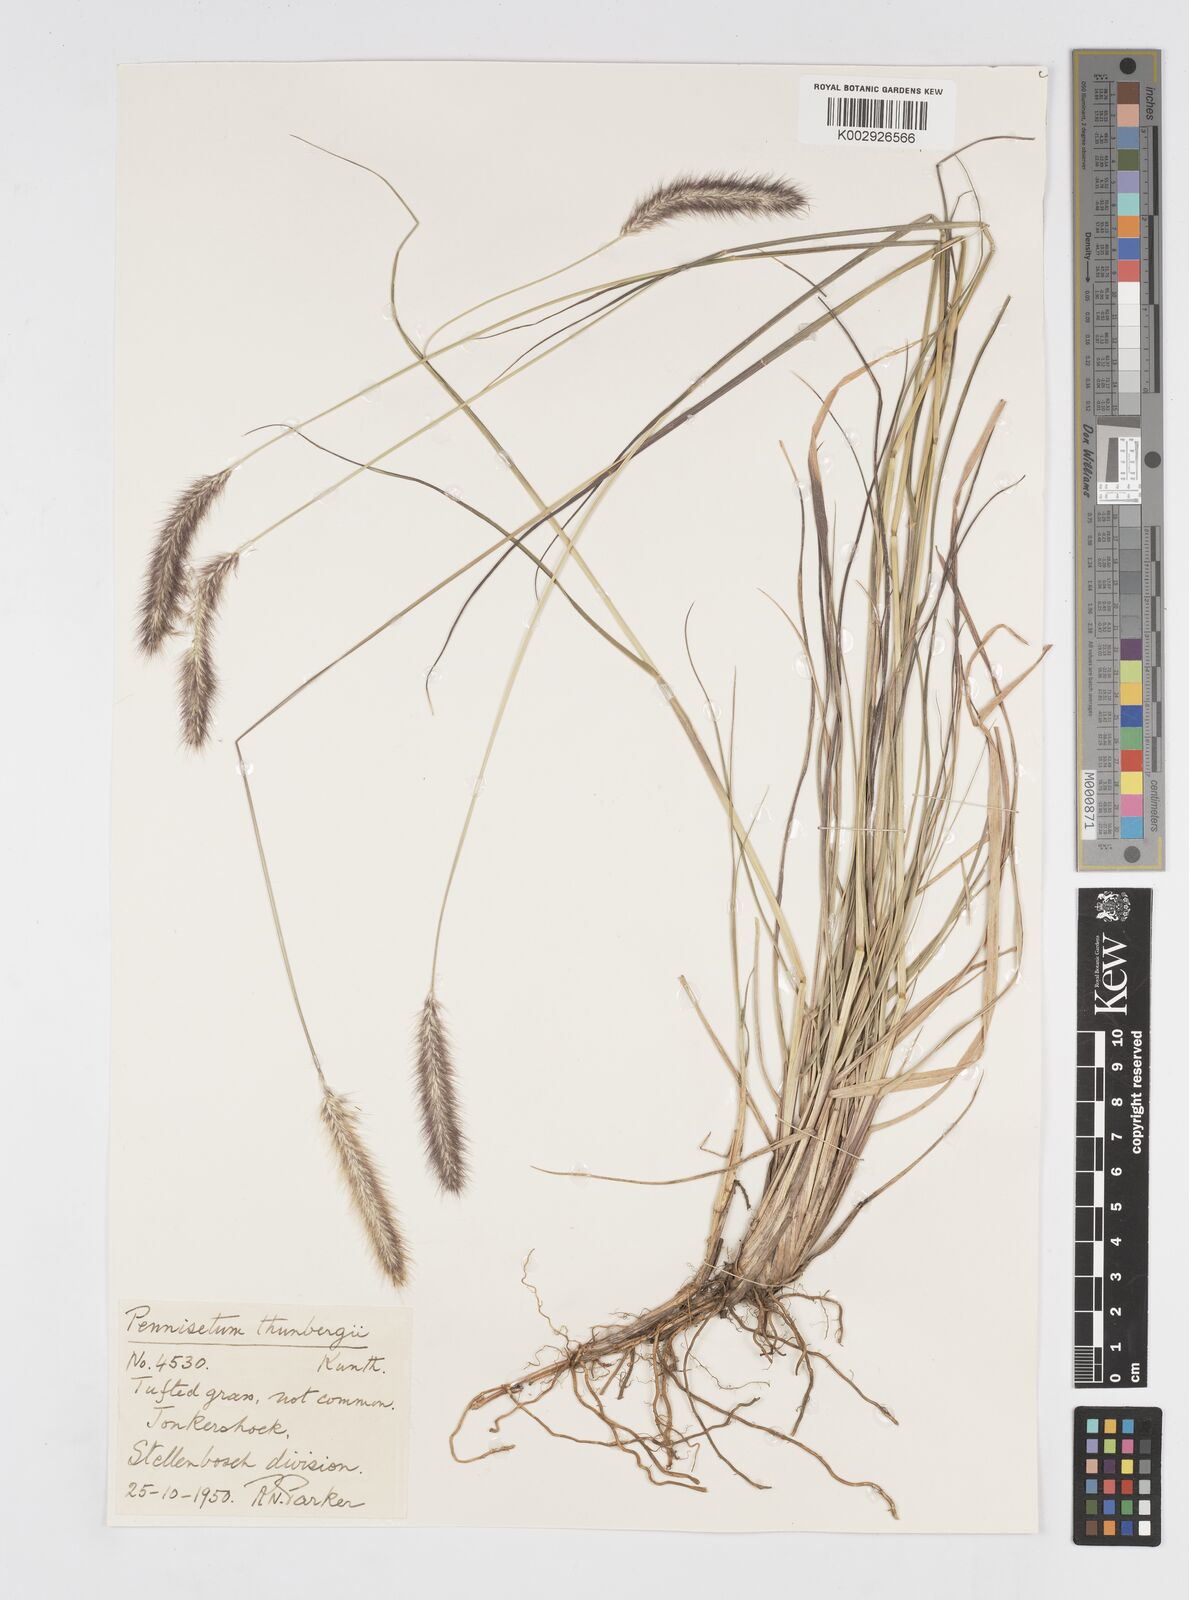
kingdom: Plantae
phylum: Tracheophyta
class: Liliopsida
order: Poales
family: Poaceae
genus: Cenchrus
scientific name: Cenchrus geniculatus
